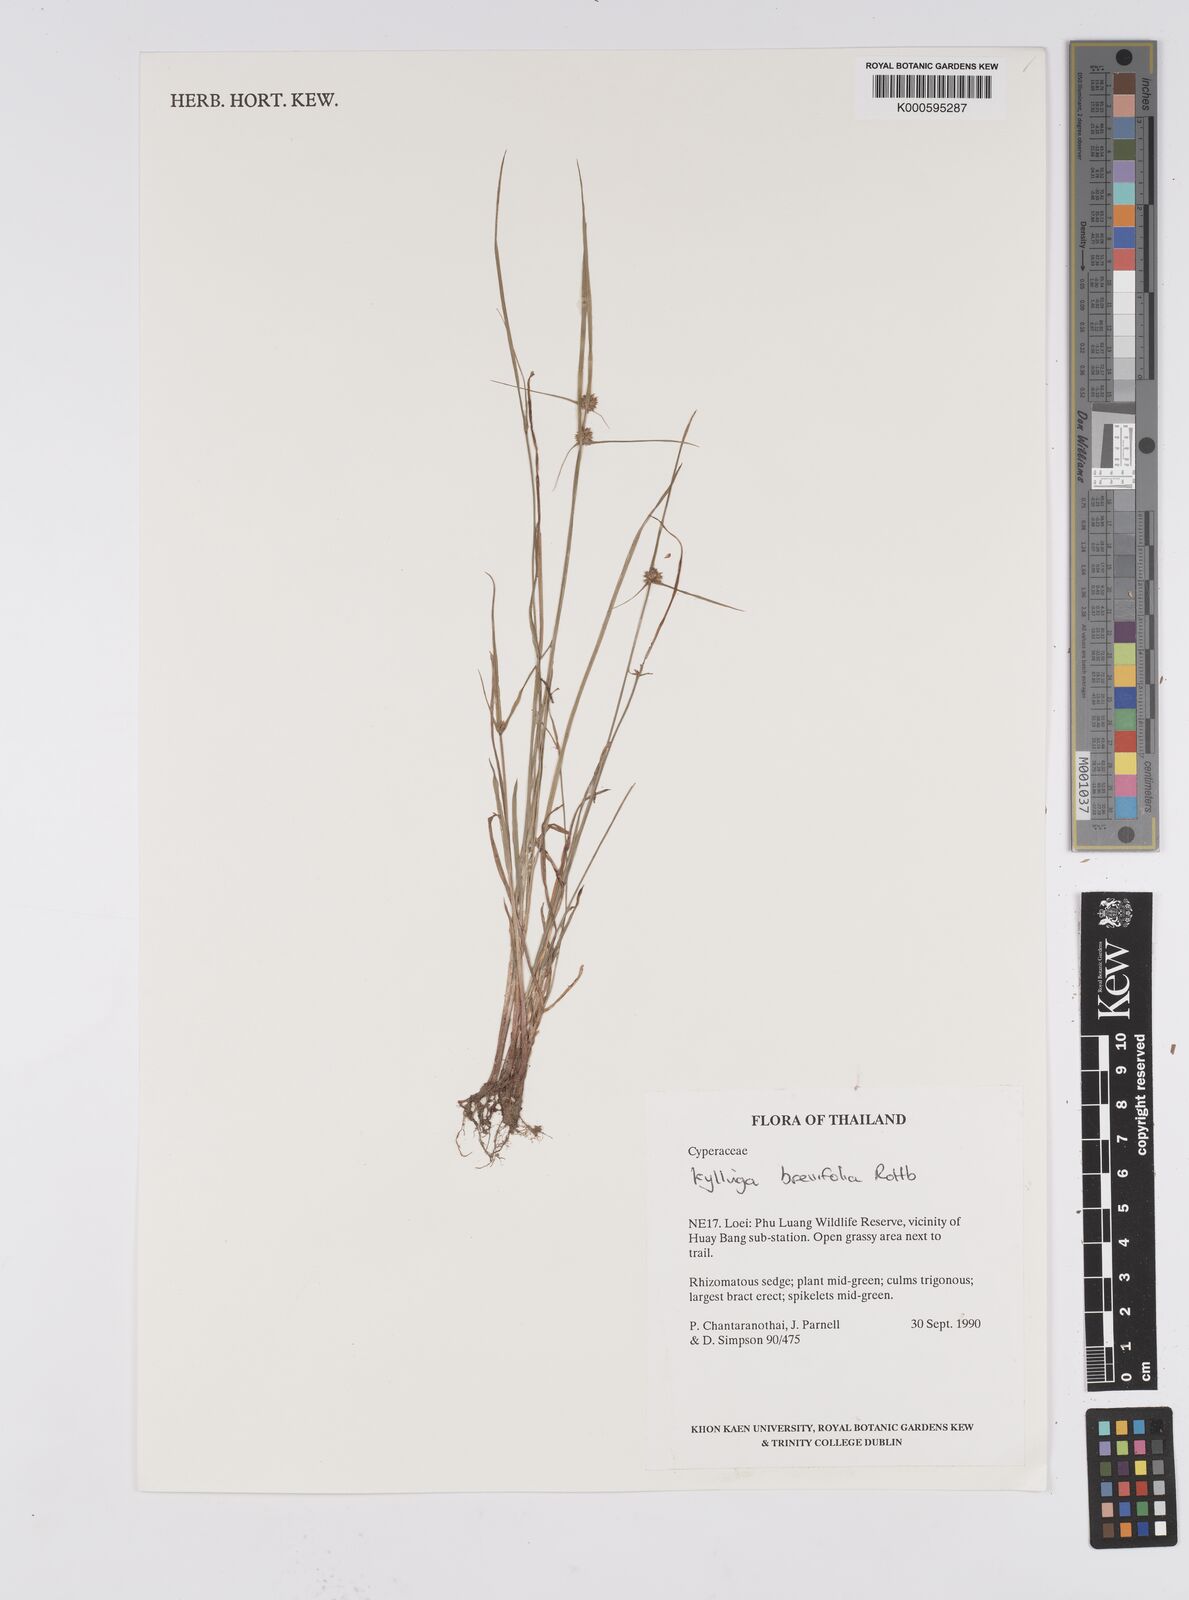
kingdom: Plantae
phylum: Tracheophyta
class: Liliopsida
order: Poales
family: Cyperaceae
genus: Cyperus
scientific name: Cyperus brevifolius
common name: Globe kyllinga
